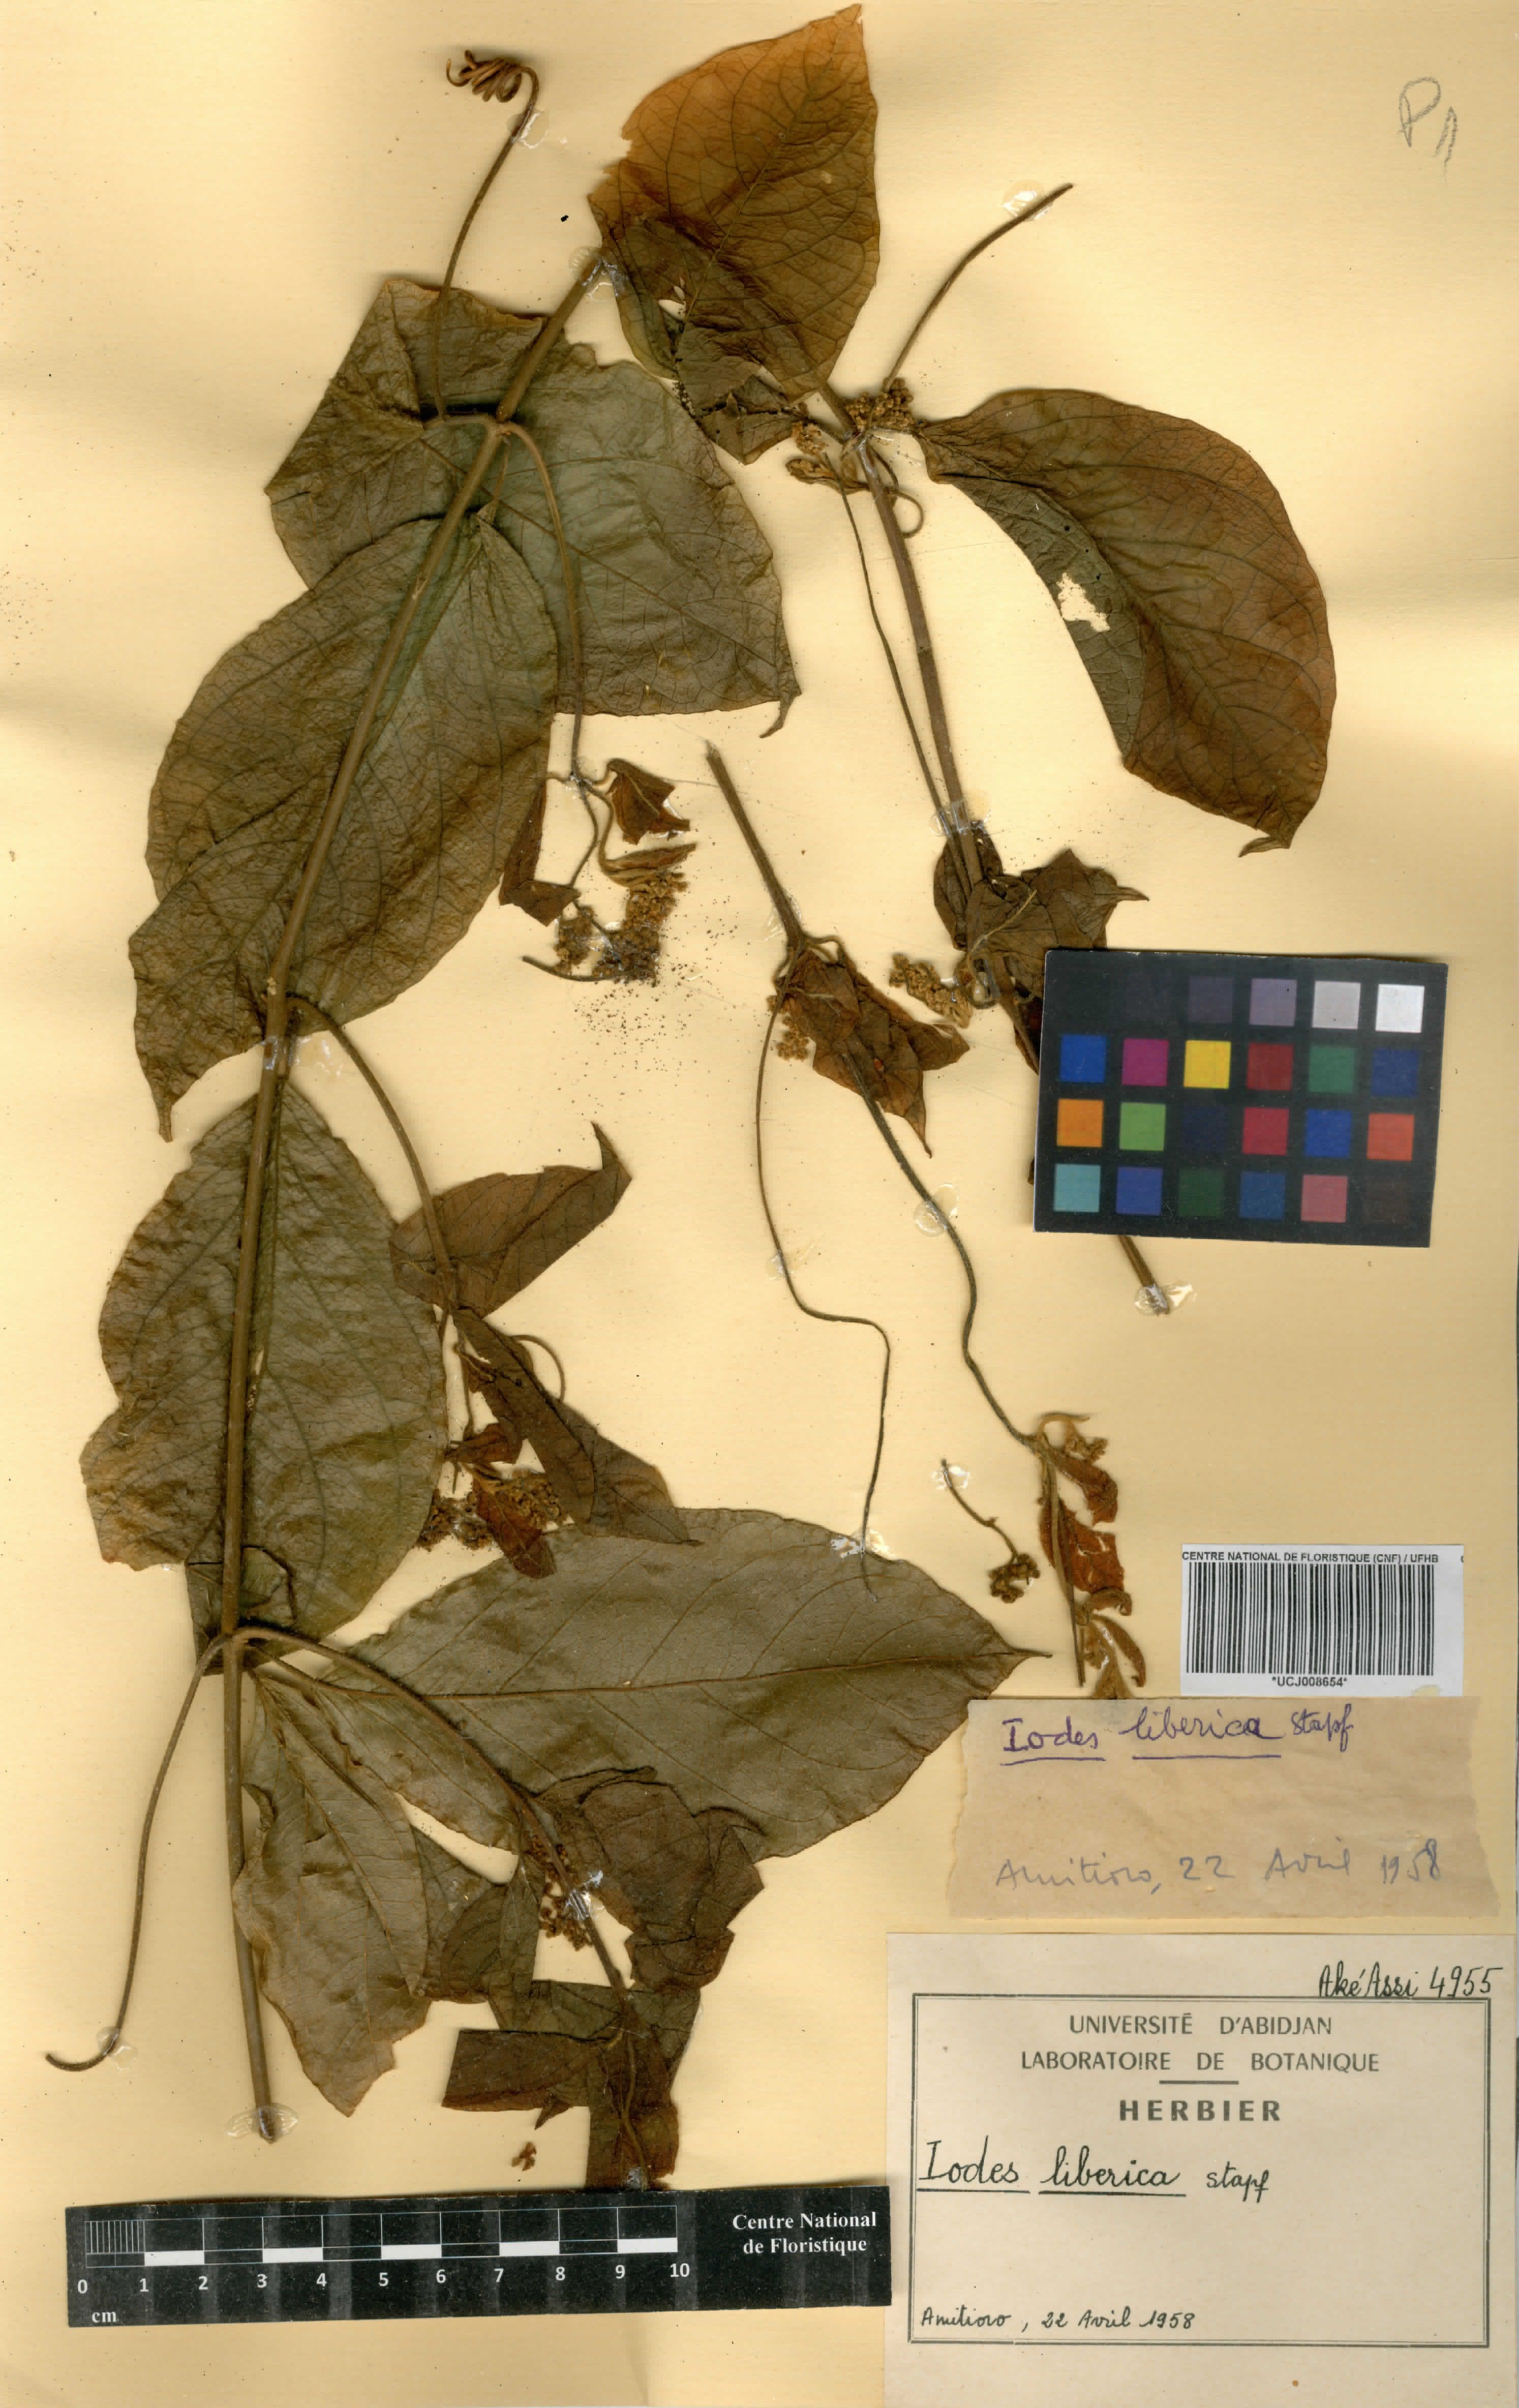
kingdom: Plantae
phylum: Tracheophyta
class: Magnoliopsida
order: Icacinales
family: Icacinaceae
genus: Iodes
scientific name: Iodes liberica
